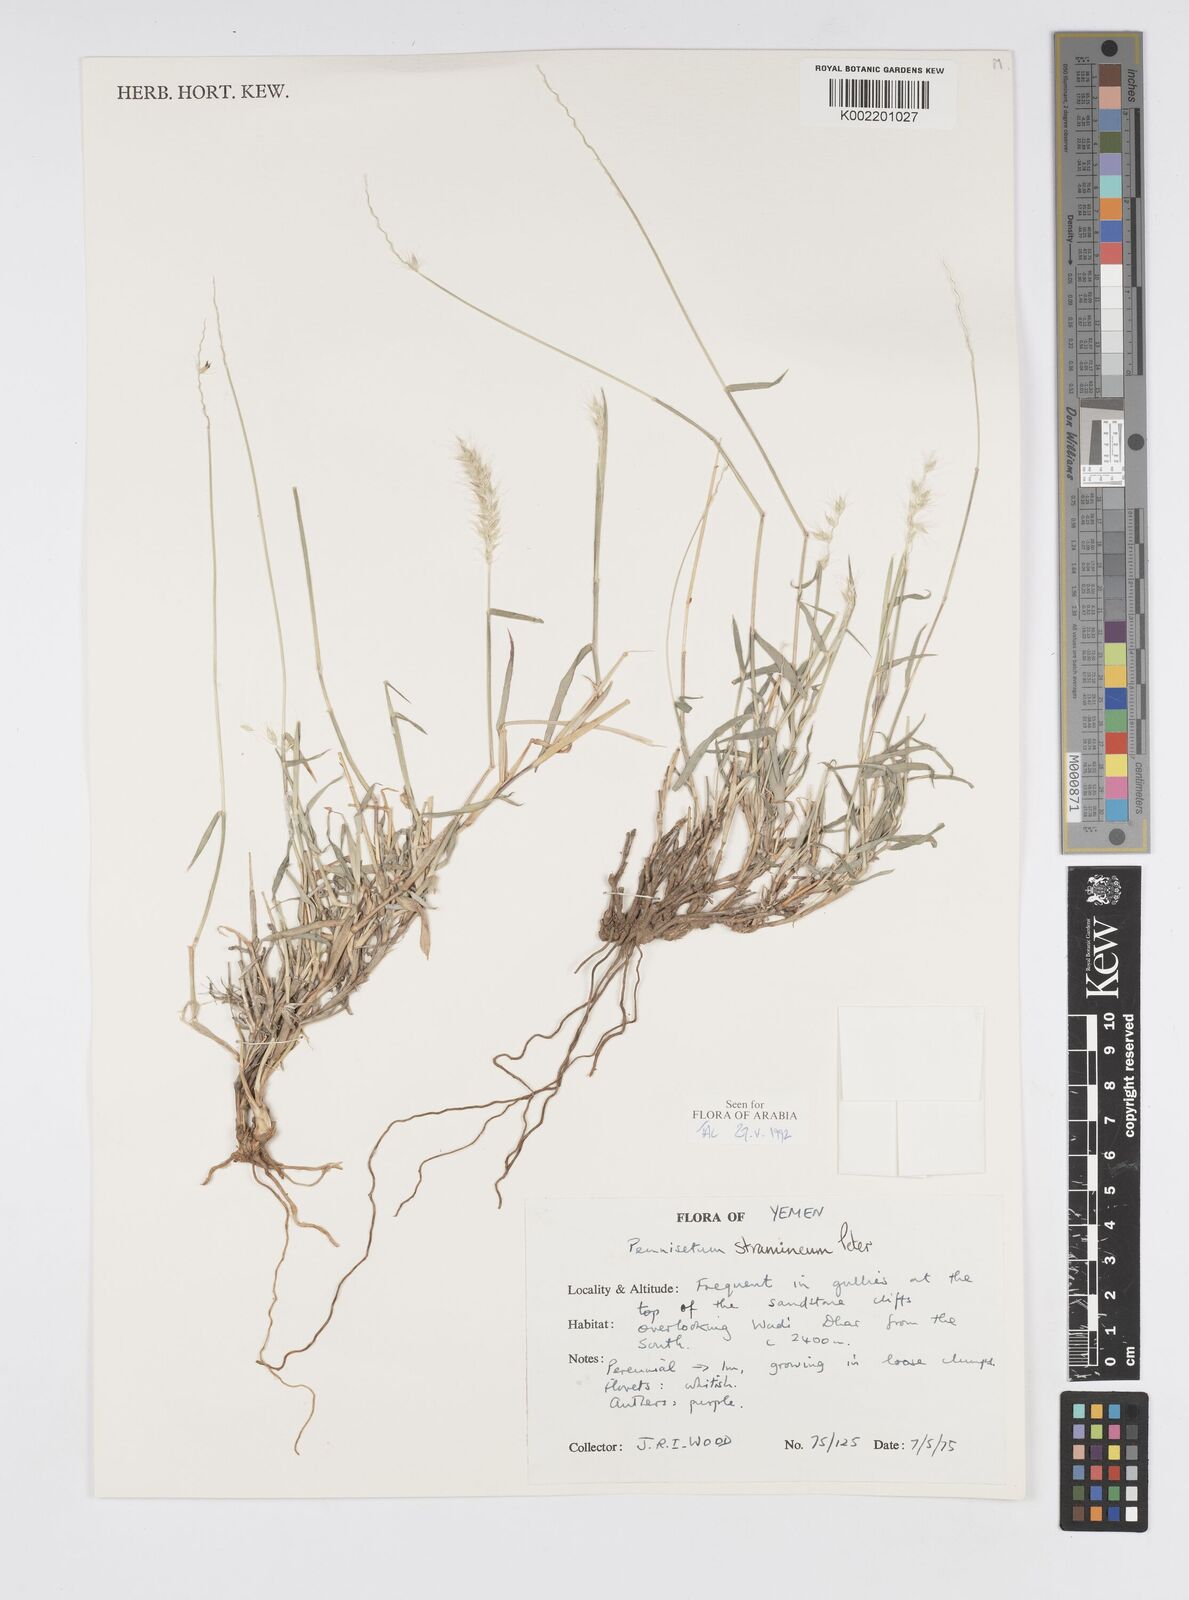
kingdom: Plantae
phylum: Tracheophyta
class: Liliopsida
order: Poales
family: Poaceae
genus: Cenchrus
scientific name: Cenchrus stramineus
